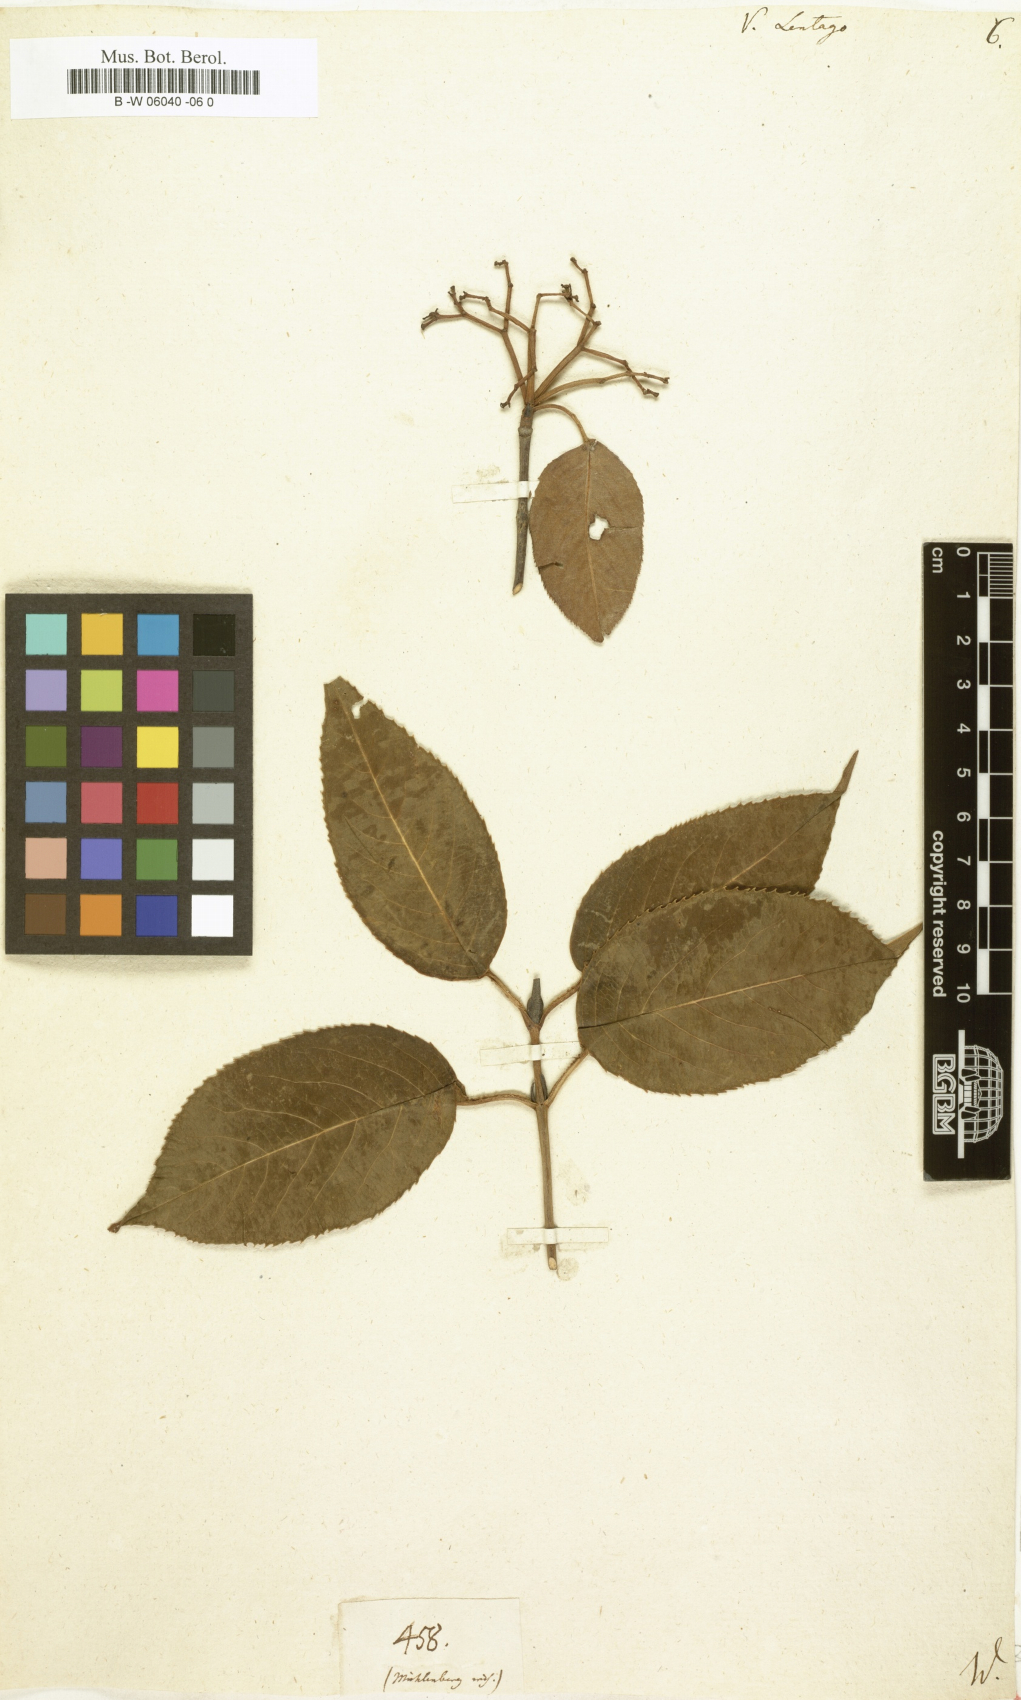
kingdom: Plantae
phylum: Tracheophyta
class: Magnoliopsida
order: Dipsacales
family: Viburnaceae
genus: Viburnum
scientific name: Viburnum lentago
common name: Black haw
